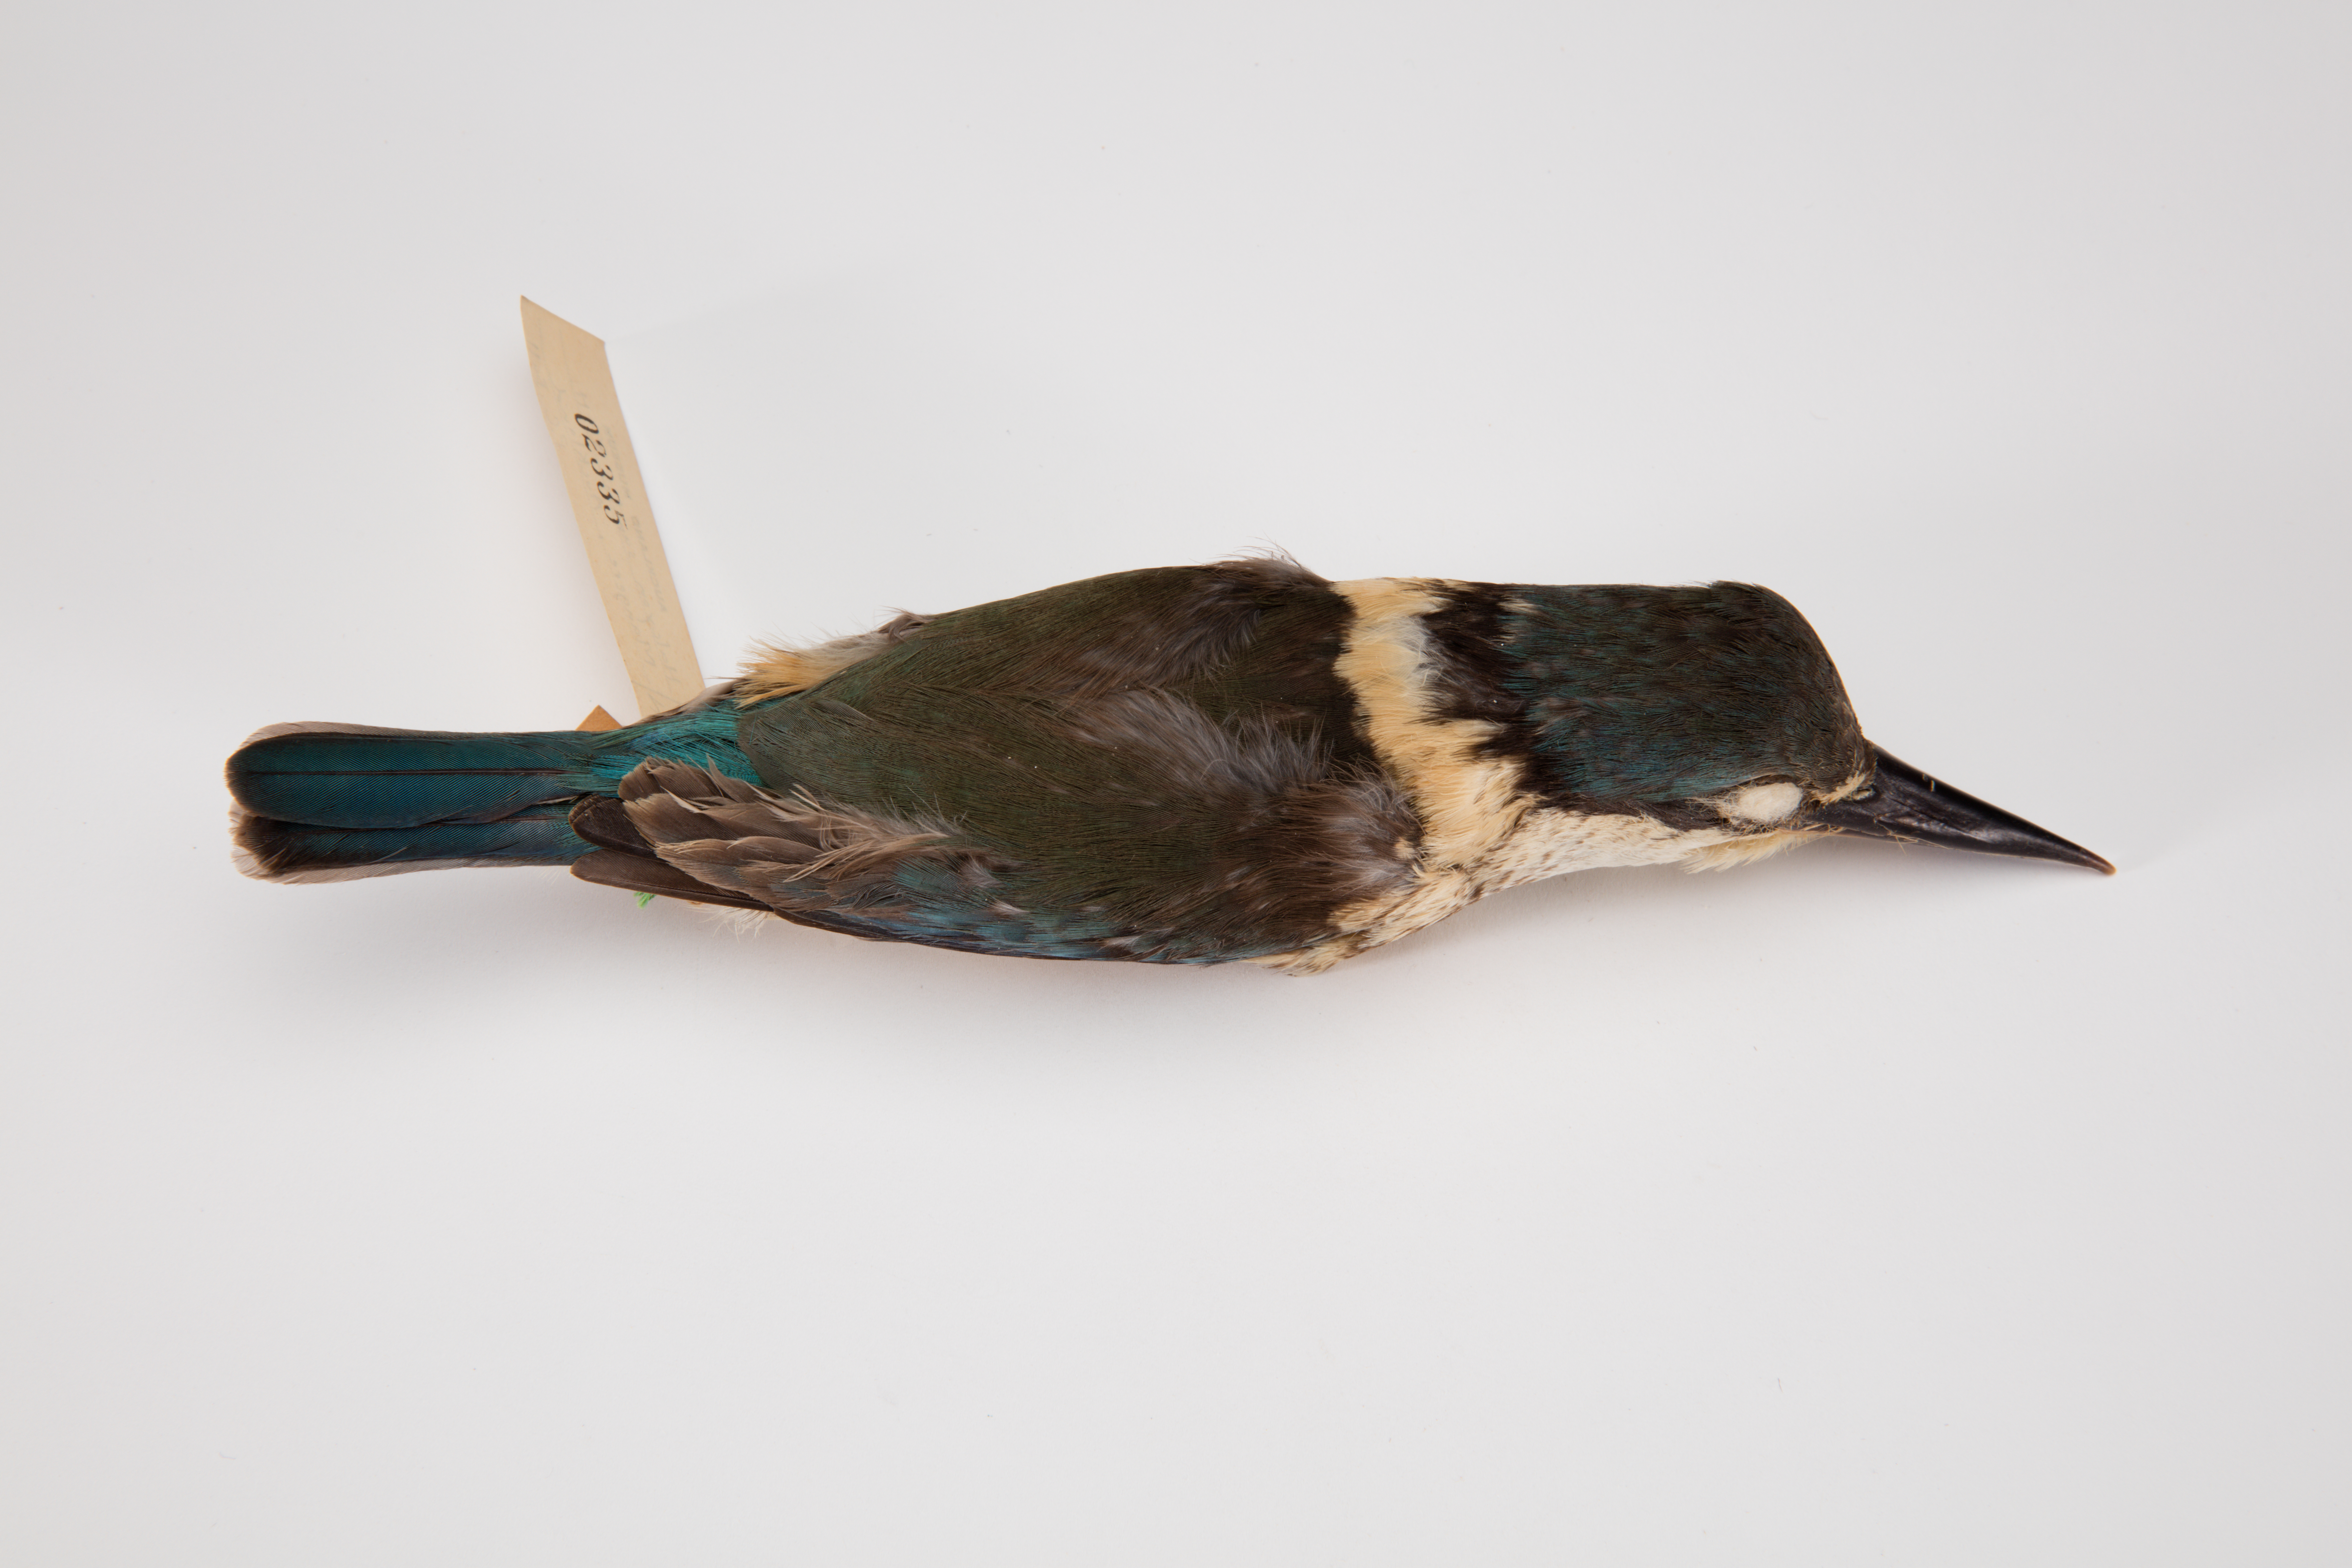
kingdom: Animalia
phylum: Chordata
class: Aves
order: Coraciiformes
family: Alcedinidae
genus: Todiramphus
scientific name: Todiramphus sanctus
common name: Sacred kingfisher
